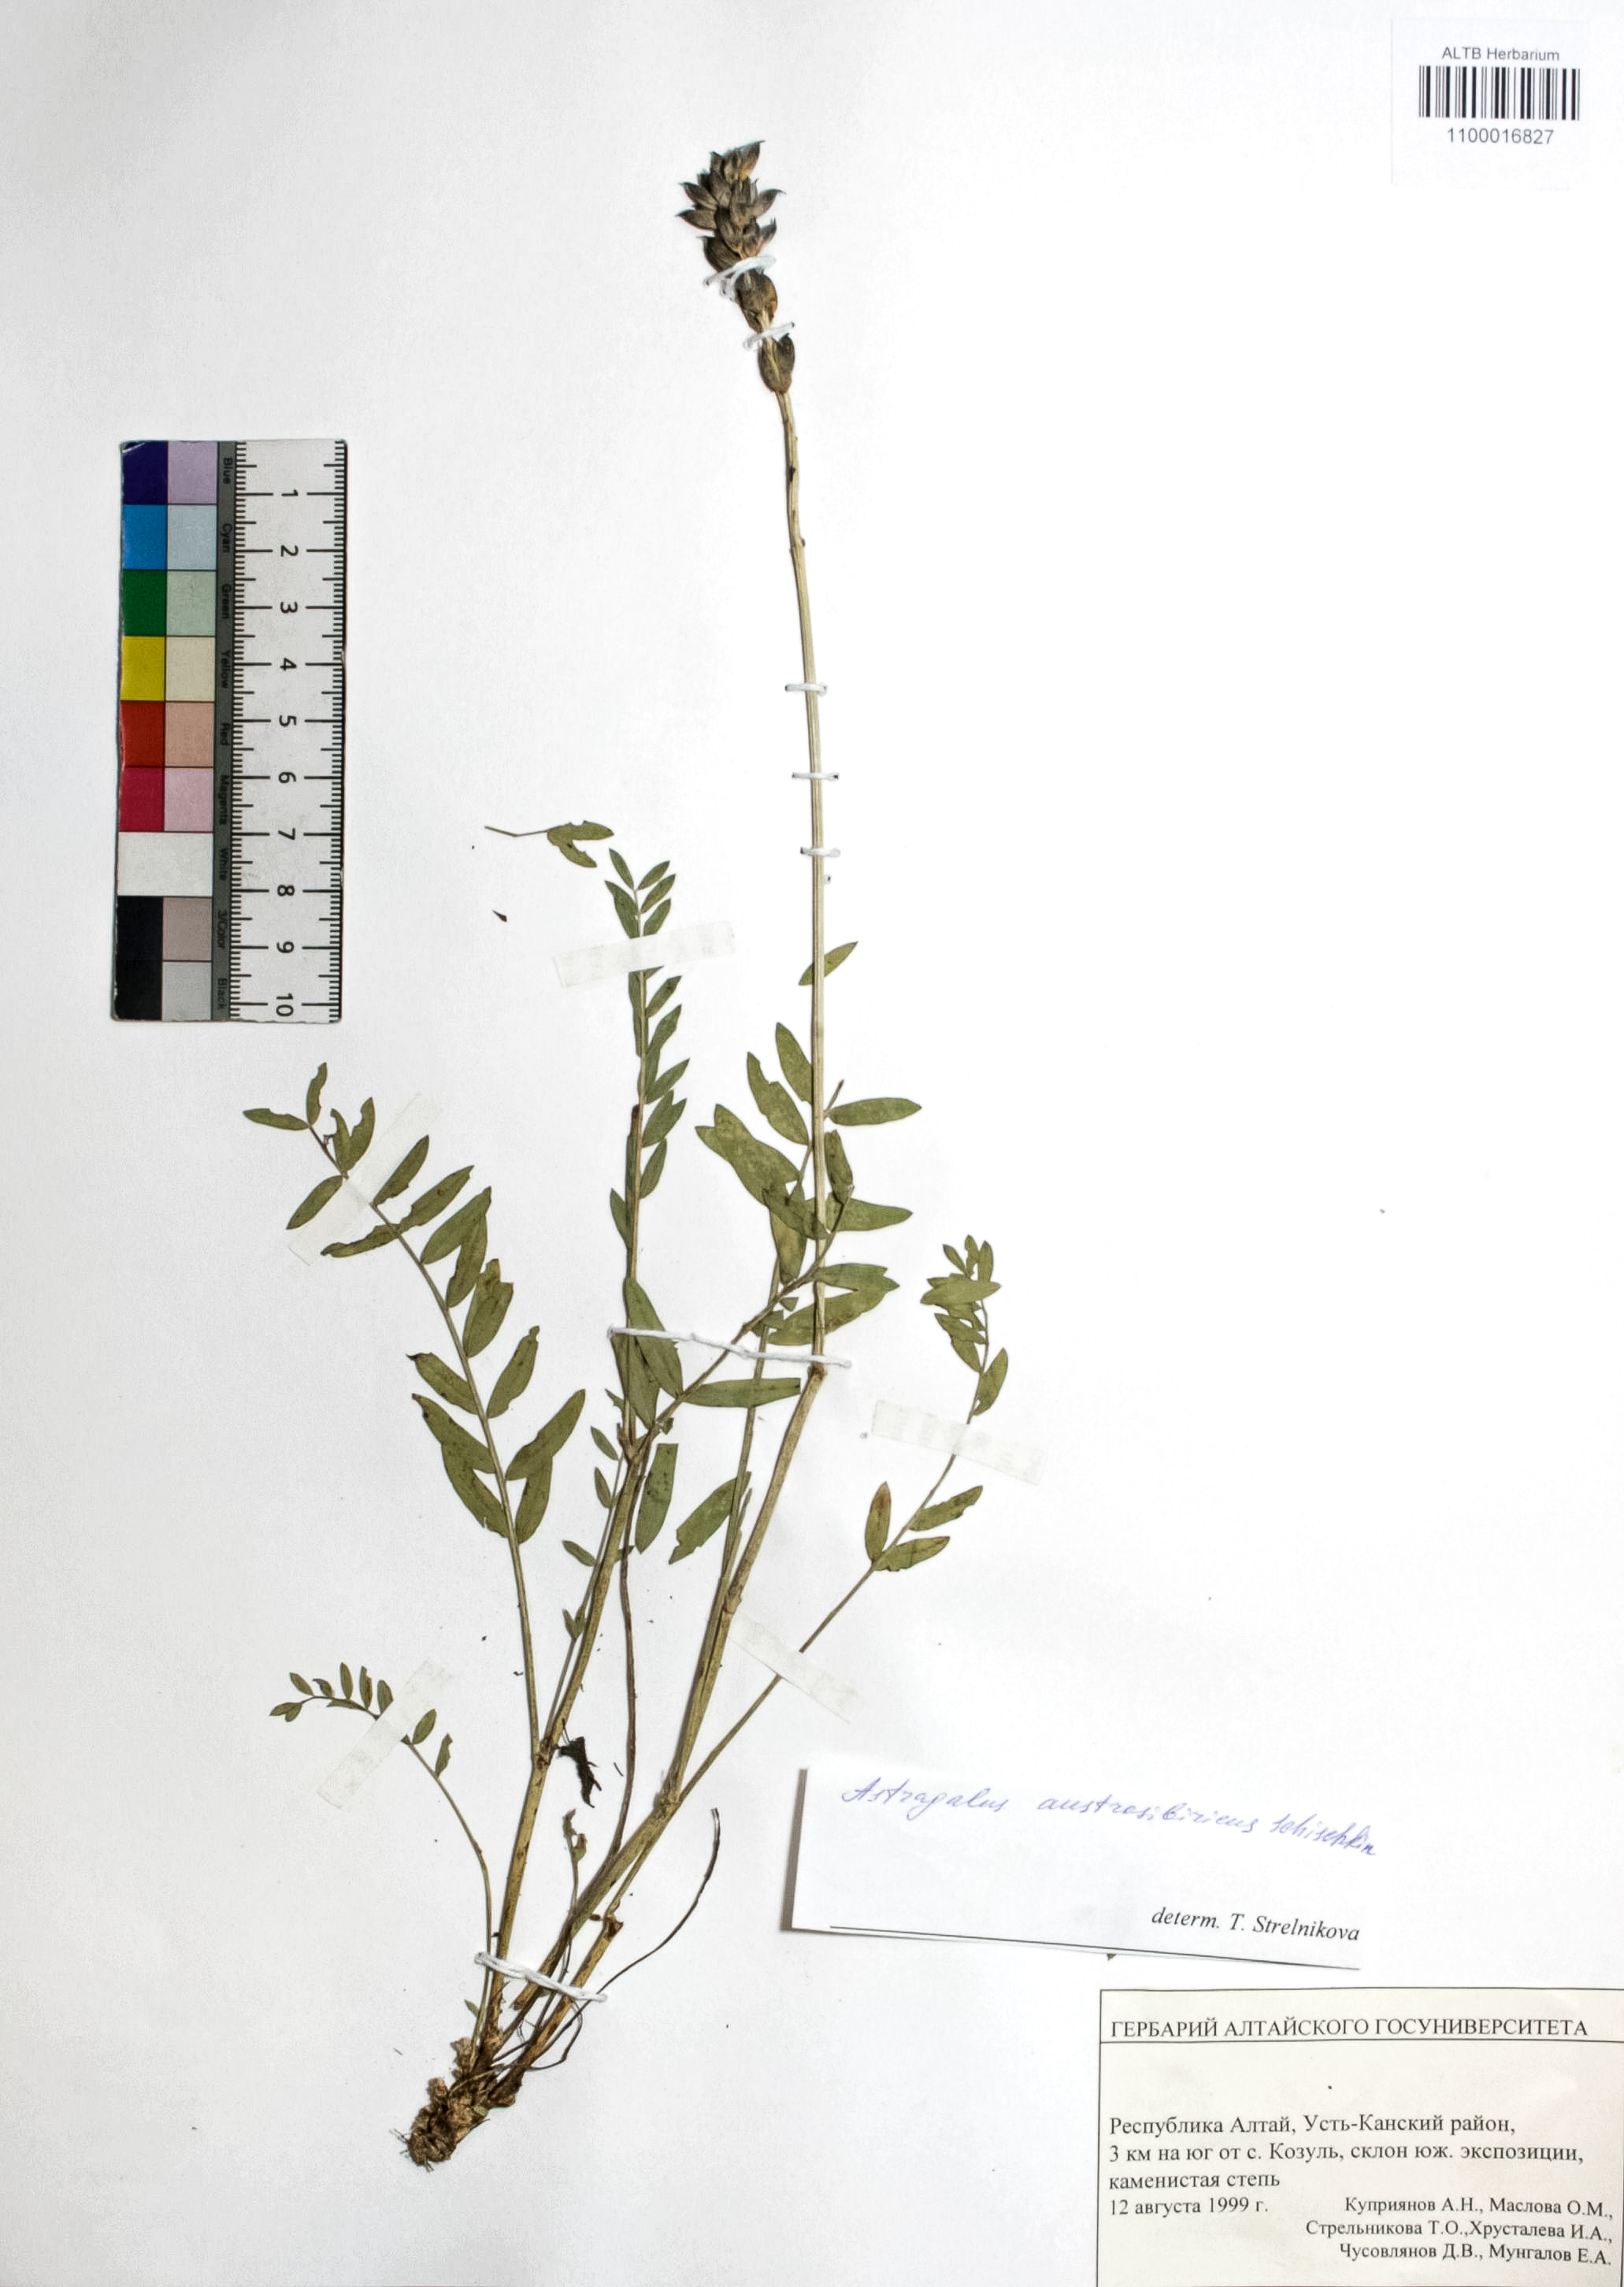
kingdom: Plantae
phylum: Tracheophyta
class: Magnoliopsida
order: Fabales
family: Fabaceae
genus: Astragalus
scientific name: Astragalus laxmannii
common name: Laxmann's milk-vetch
